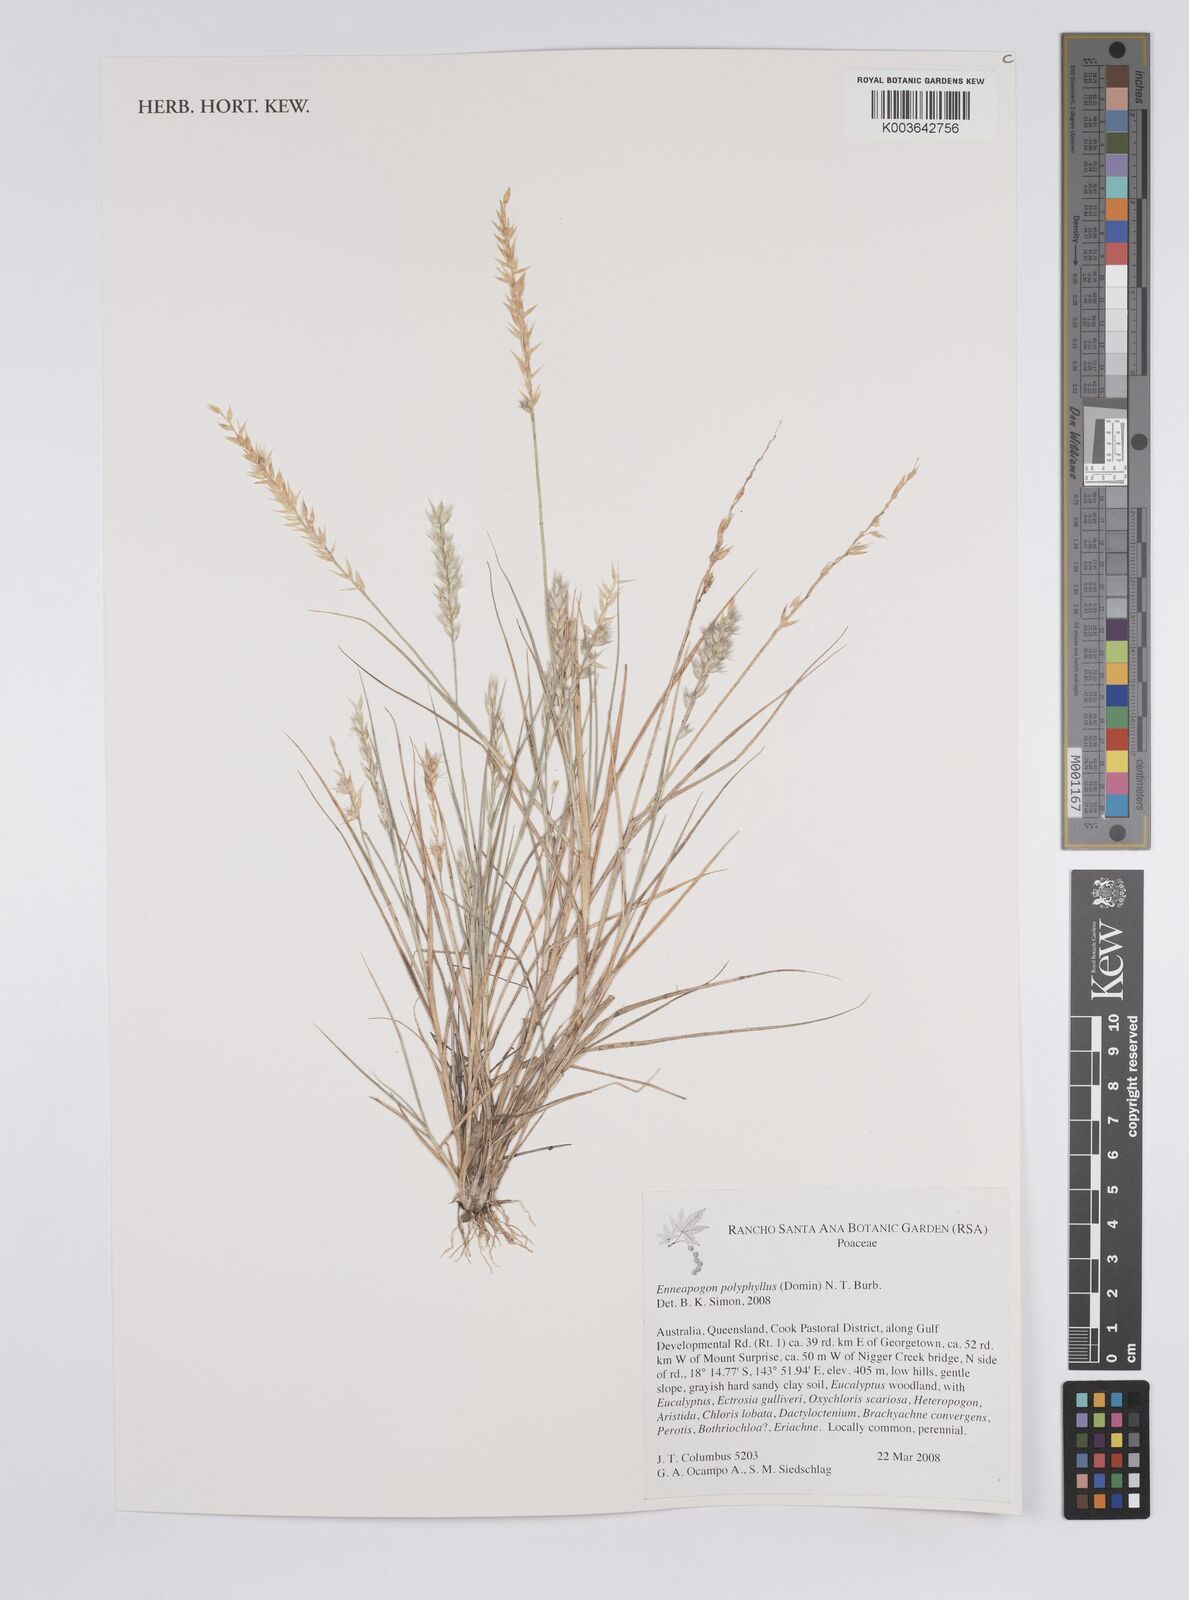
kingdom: Plantae
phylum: Tracheophyta
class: Liliopsida
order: Poales
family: Poaceae
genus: Enneapogon
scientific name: Enneapogon polyphyllus
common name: Leafy nineawn
